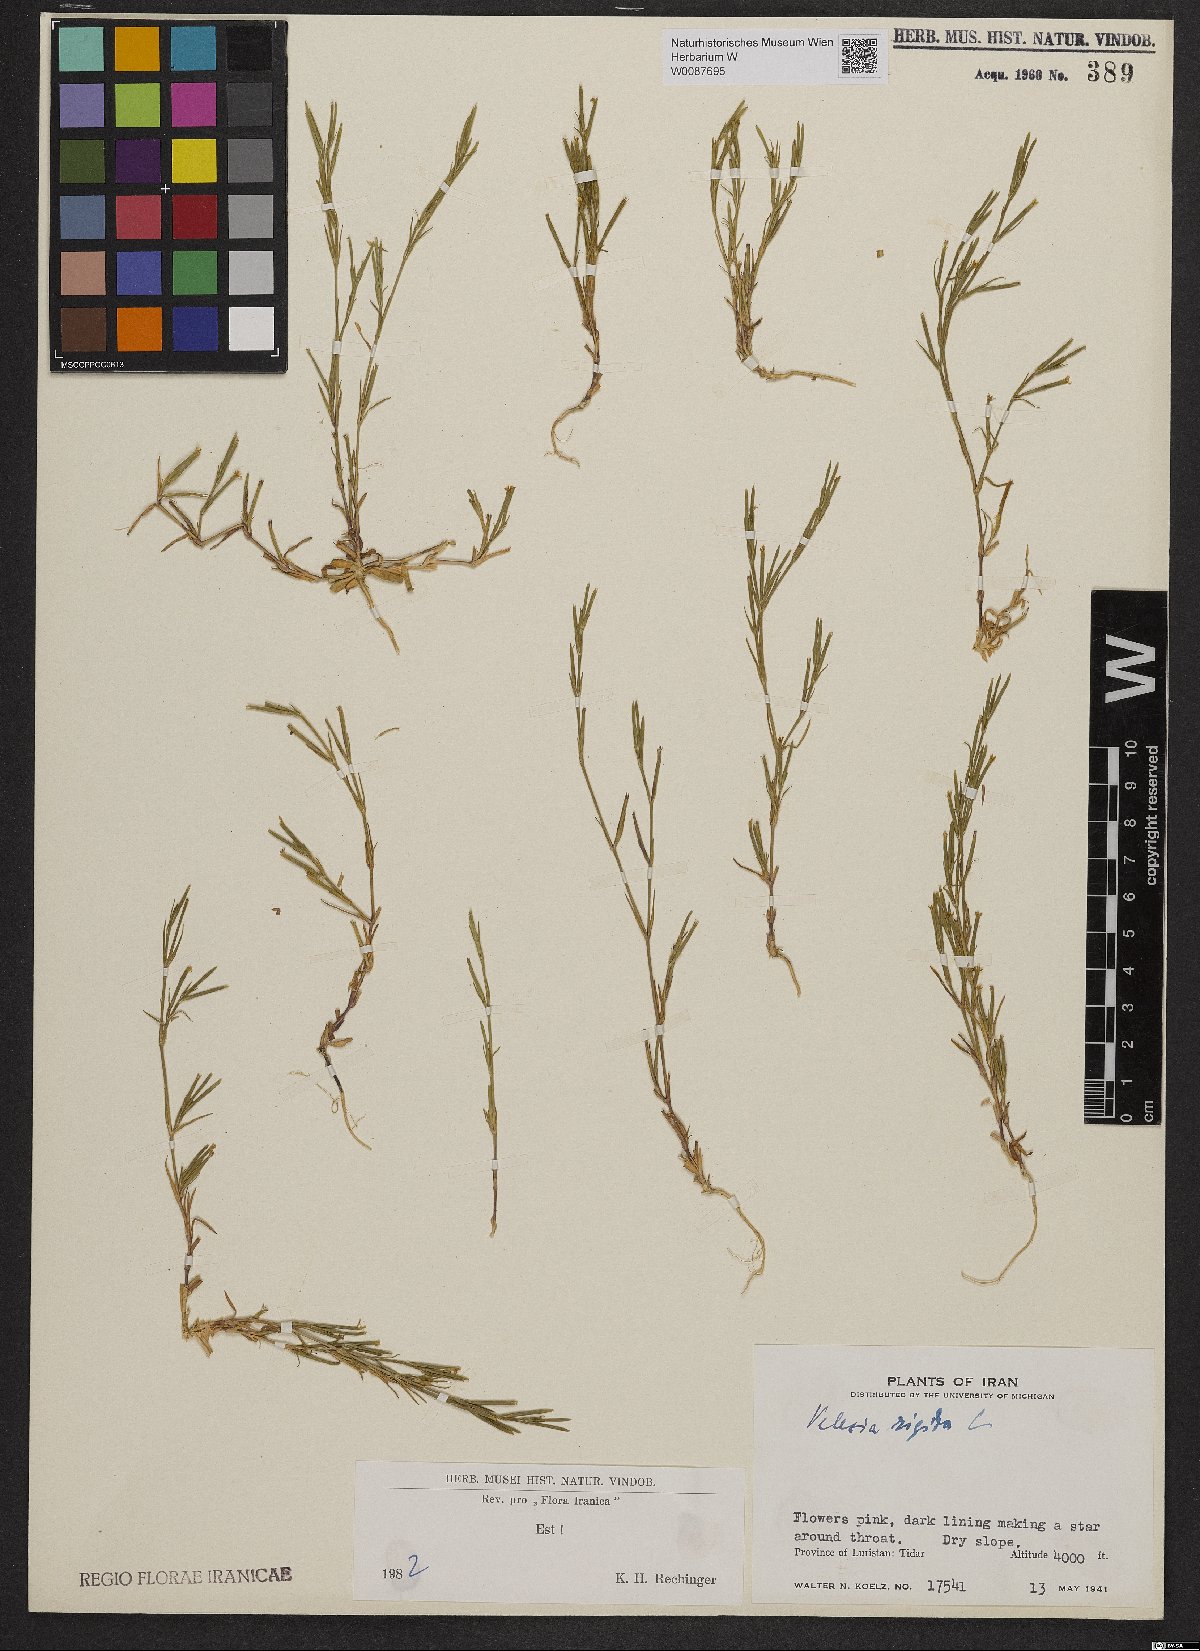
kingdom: Plantae
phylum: Tracheophyta
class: Magnoliopsida
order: Caryophyllales
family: Caryophyllaceae
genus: Dianthus
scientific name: Dianthus nudiflorus
